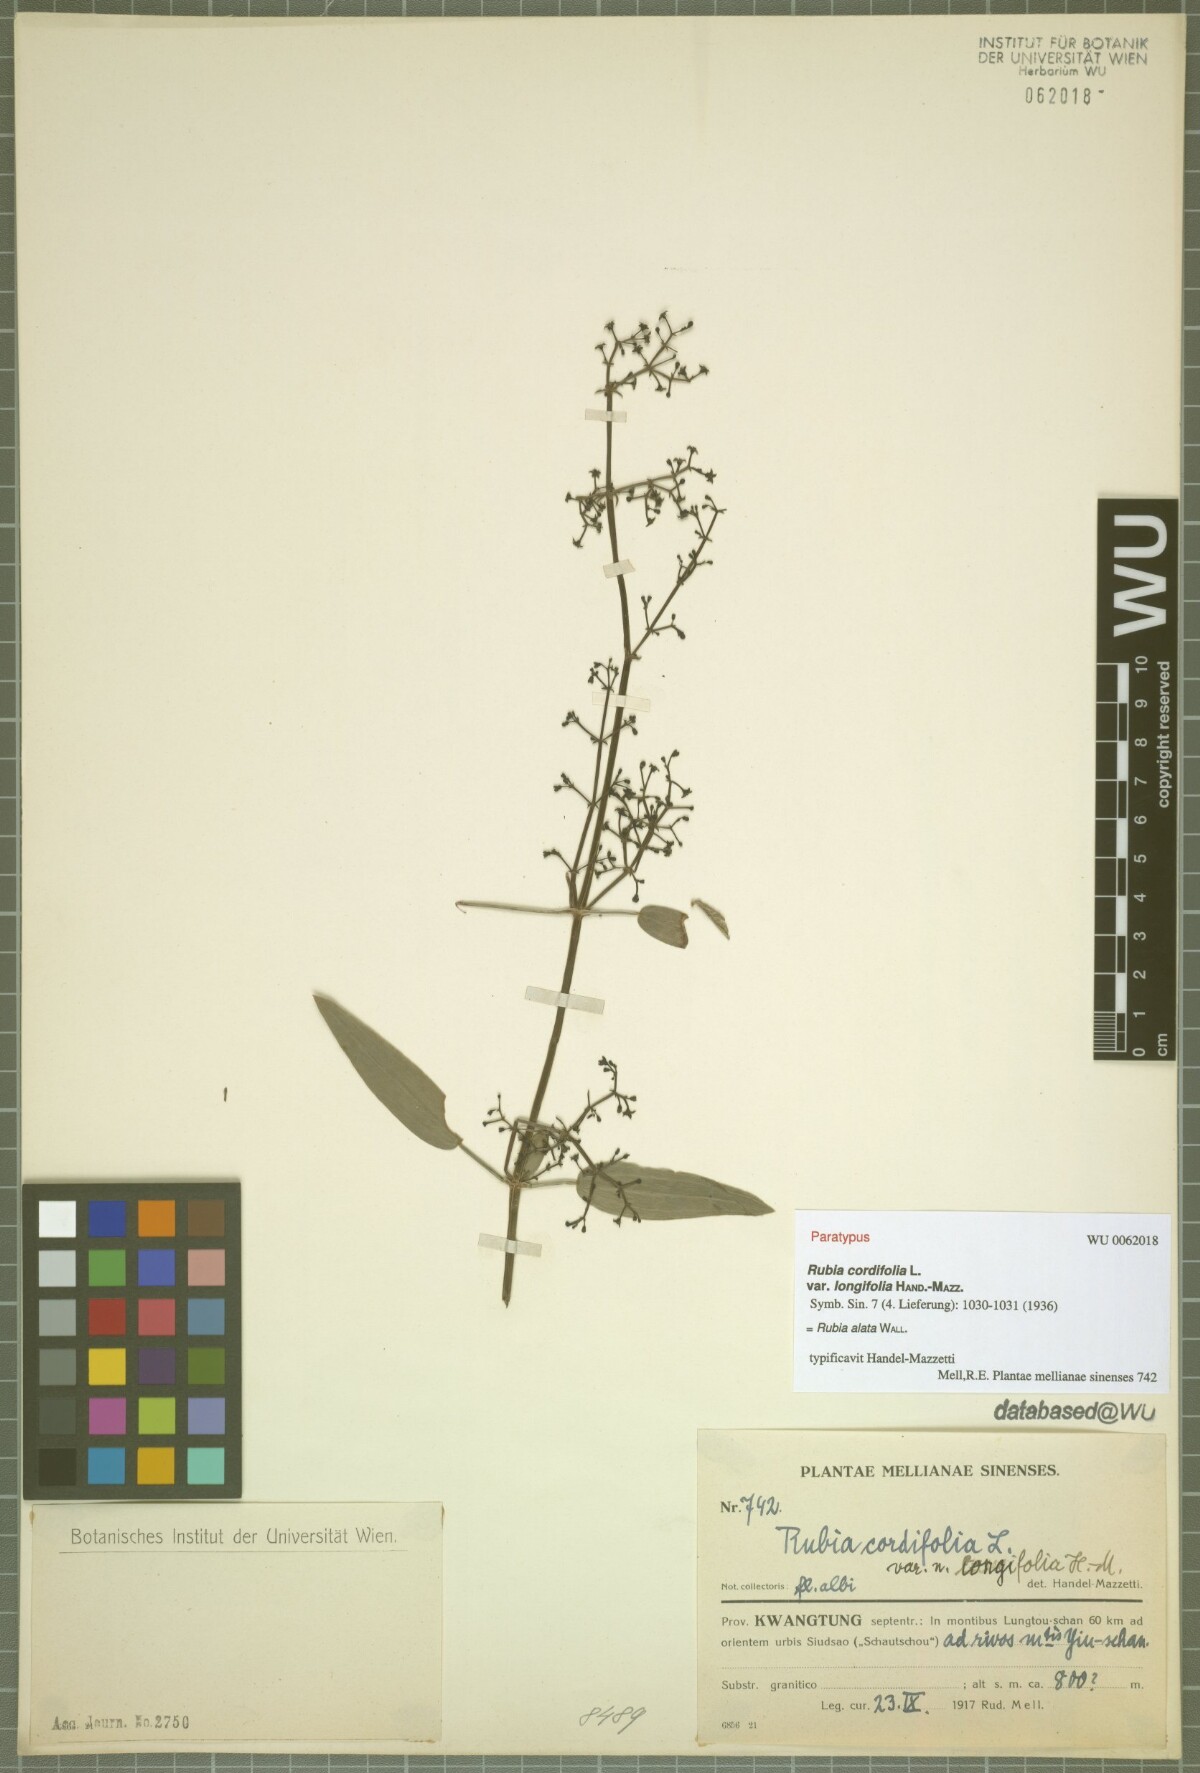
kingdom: Plantae
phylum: Tracheophyta
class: Magnoliopsida
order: Gentianales
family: Rubiaceae
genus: Rubia
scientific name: Rubia alata
